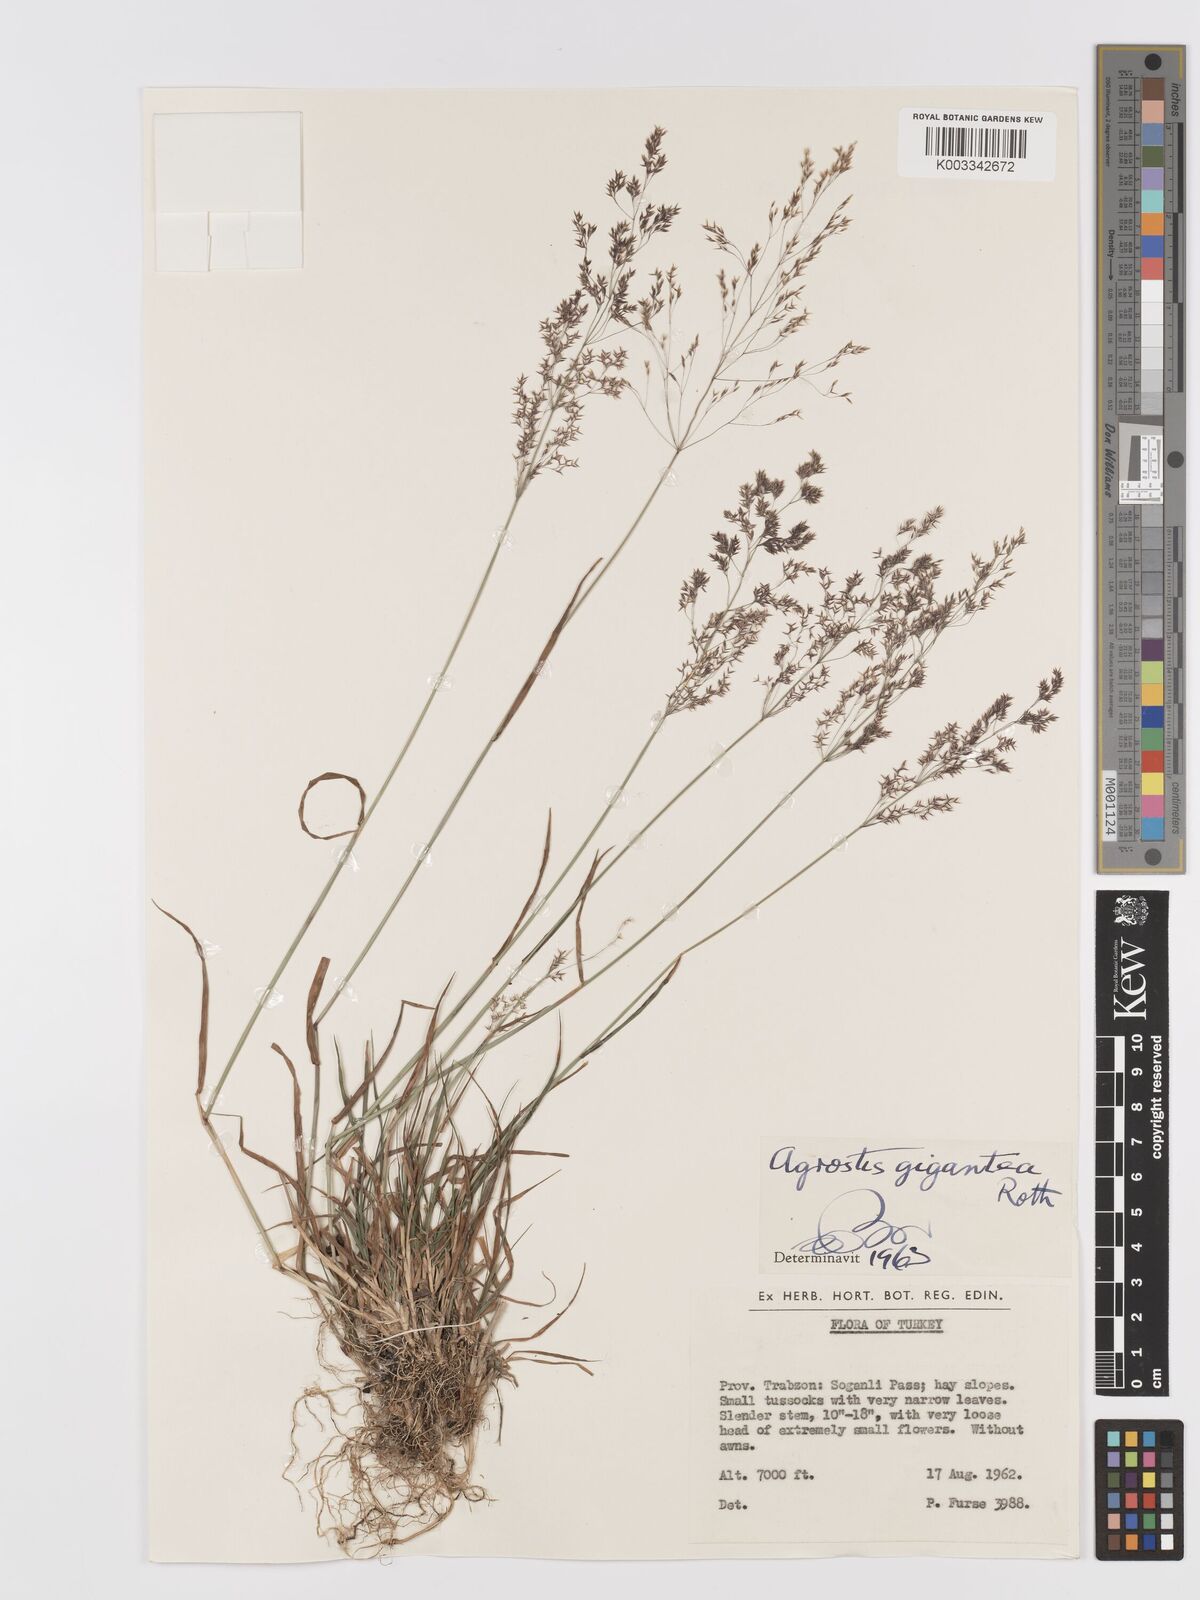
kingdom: Plantae
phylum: Tracheophyta
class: Liliopsida
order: Poales
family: Poaceae
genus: Agrostis
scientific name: Agrostis gigantea
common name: Black bent
